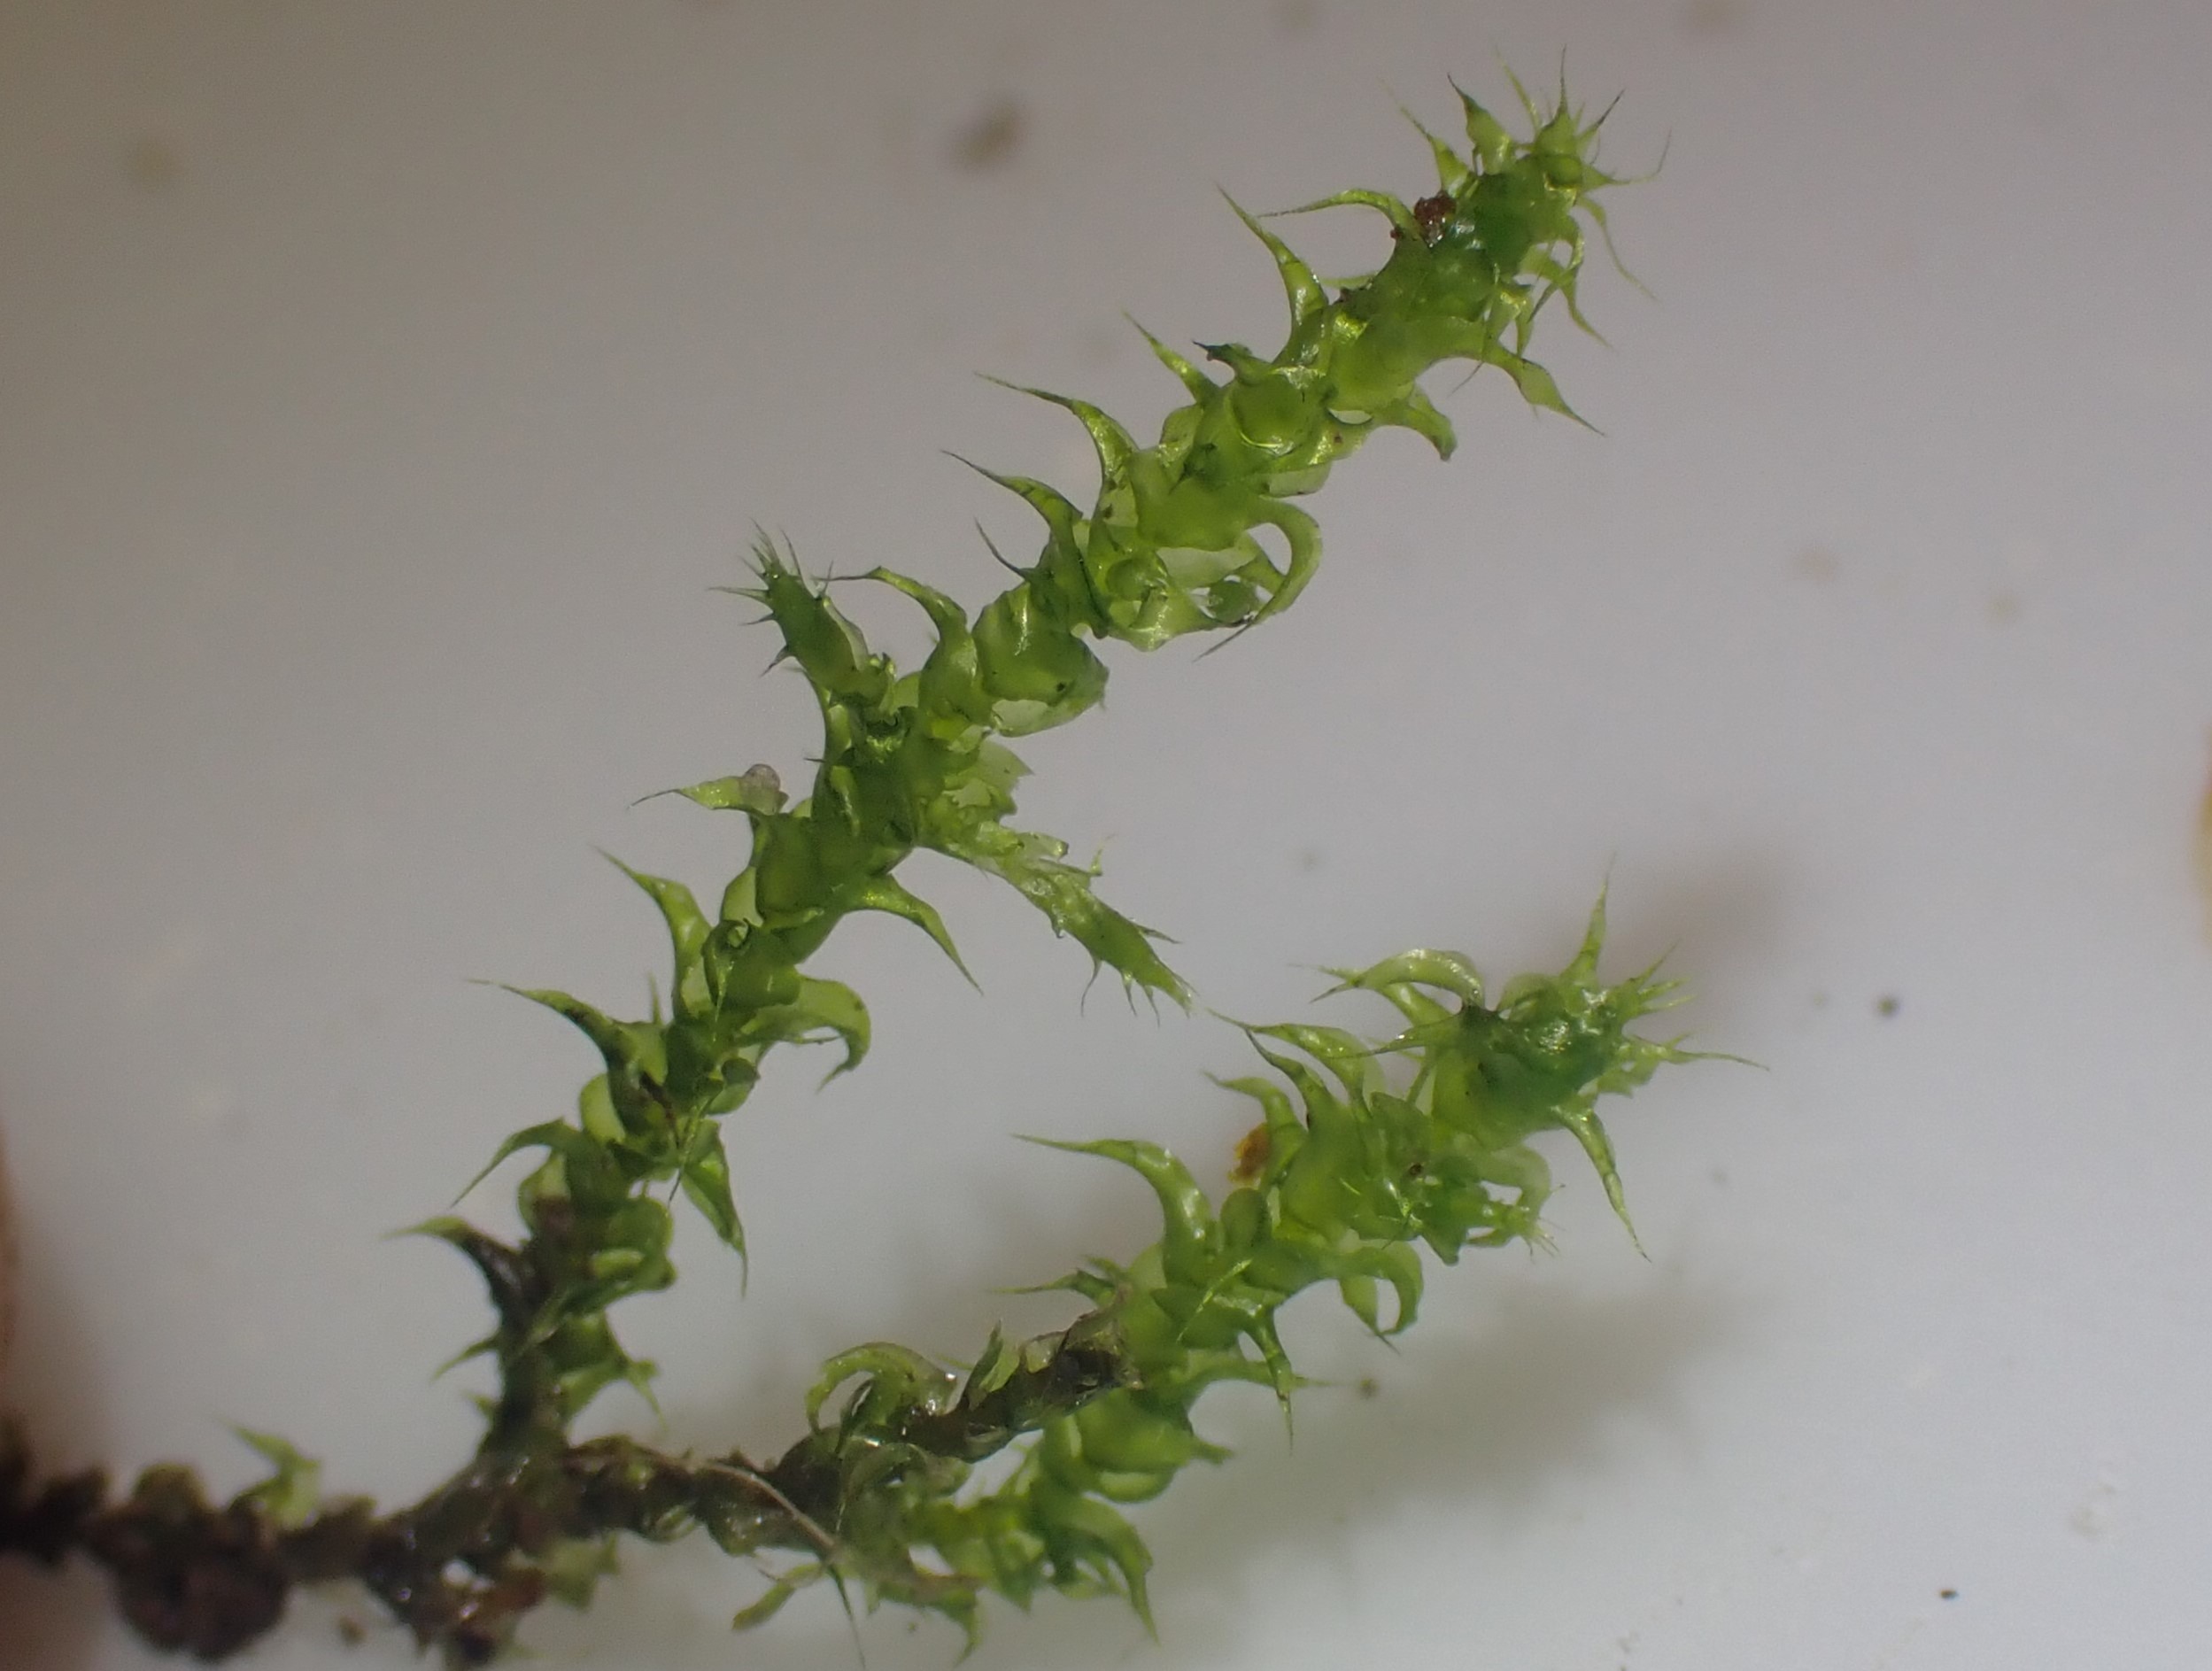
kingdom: Plantae
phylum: Bryophyta
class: Bryopsida
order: Hypnales
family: Hylocomiaceae
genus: Rhytidiadelphus
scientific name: Rhytidiadelphus squarrosus
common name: Plæne-kransemos
